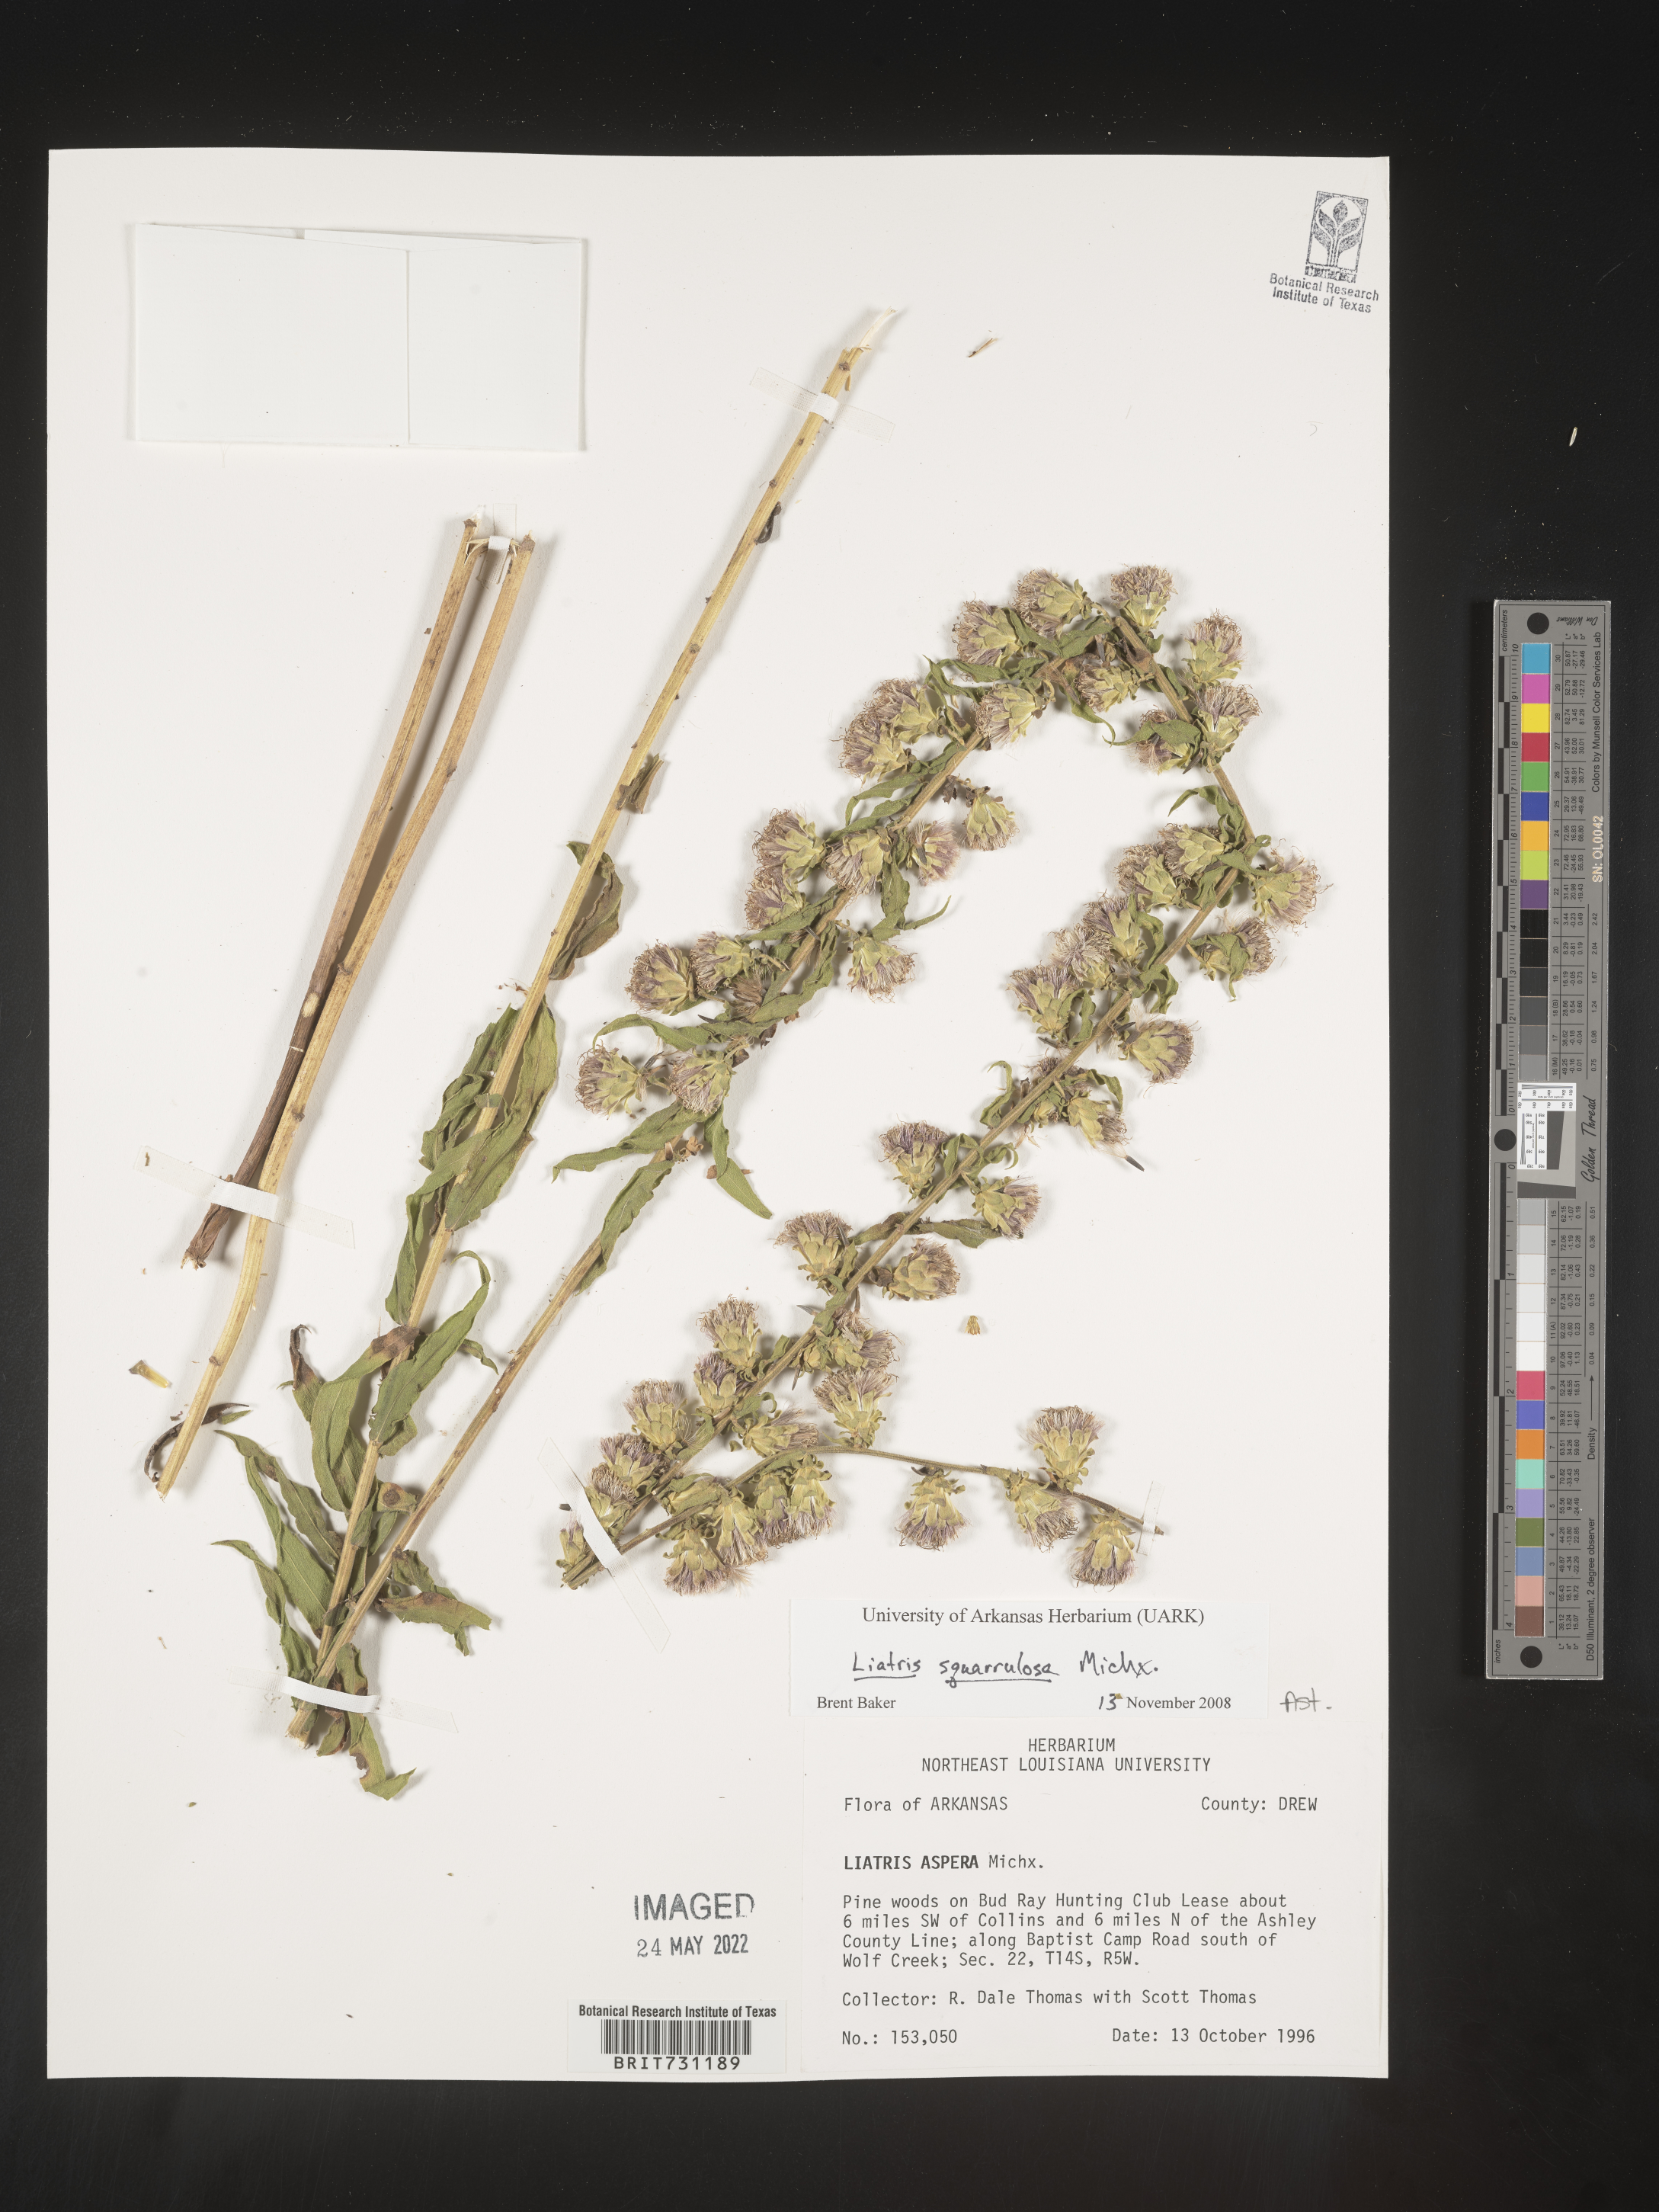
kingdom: Plantae
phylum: Tracheophyta
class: Magnoliopsida
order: Asterales
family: Asteraceae
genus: Liatris
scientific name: Liatris squarrulosa
